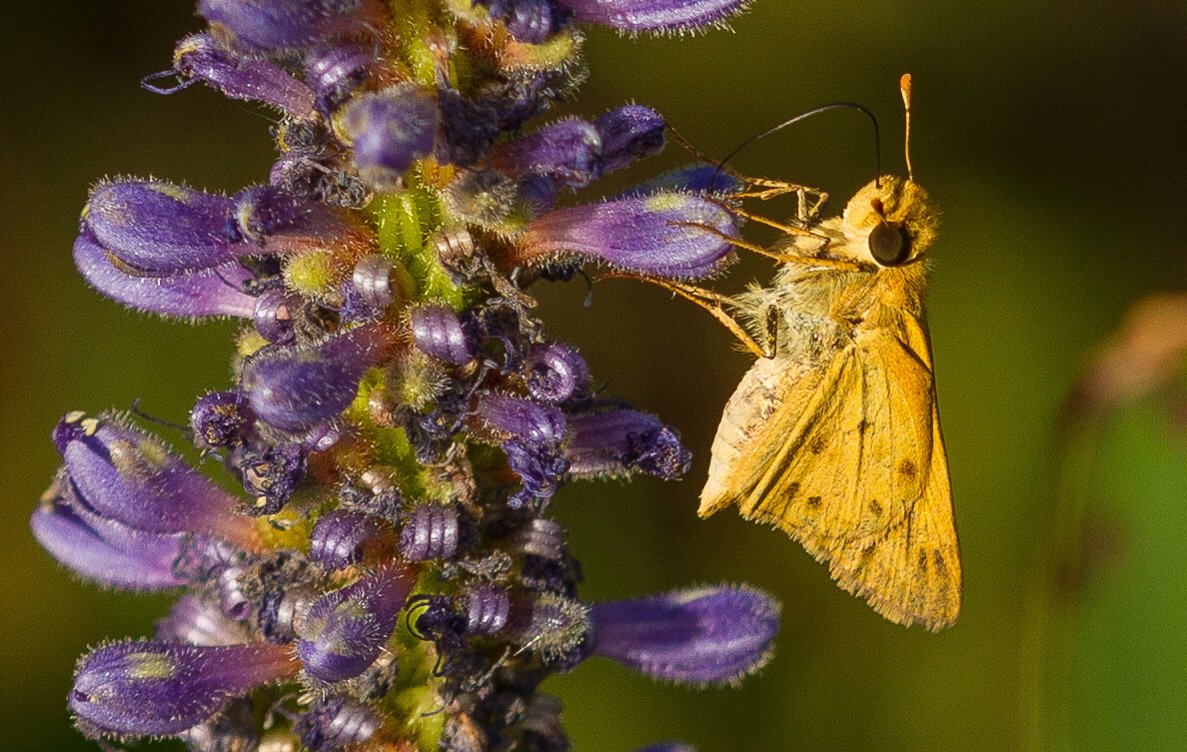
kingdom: Animalia
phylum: Arthropoda
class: Insecta
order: Lepidoptera
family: Hesperiidae
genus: Hylephila
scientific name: Hylephila phyleus
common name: Fiery Skipper
